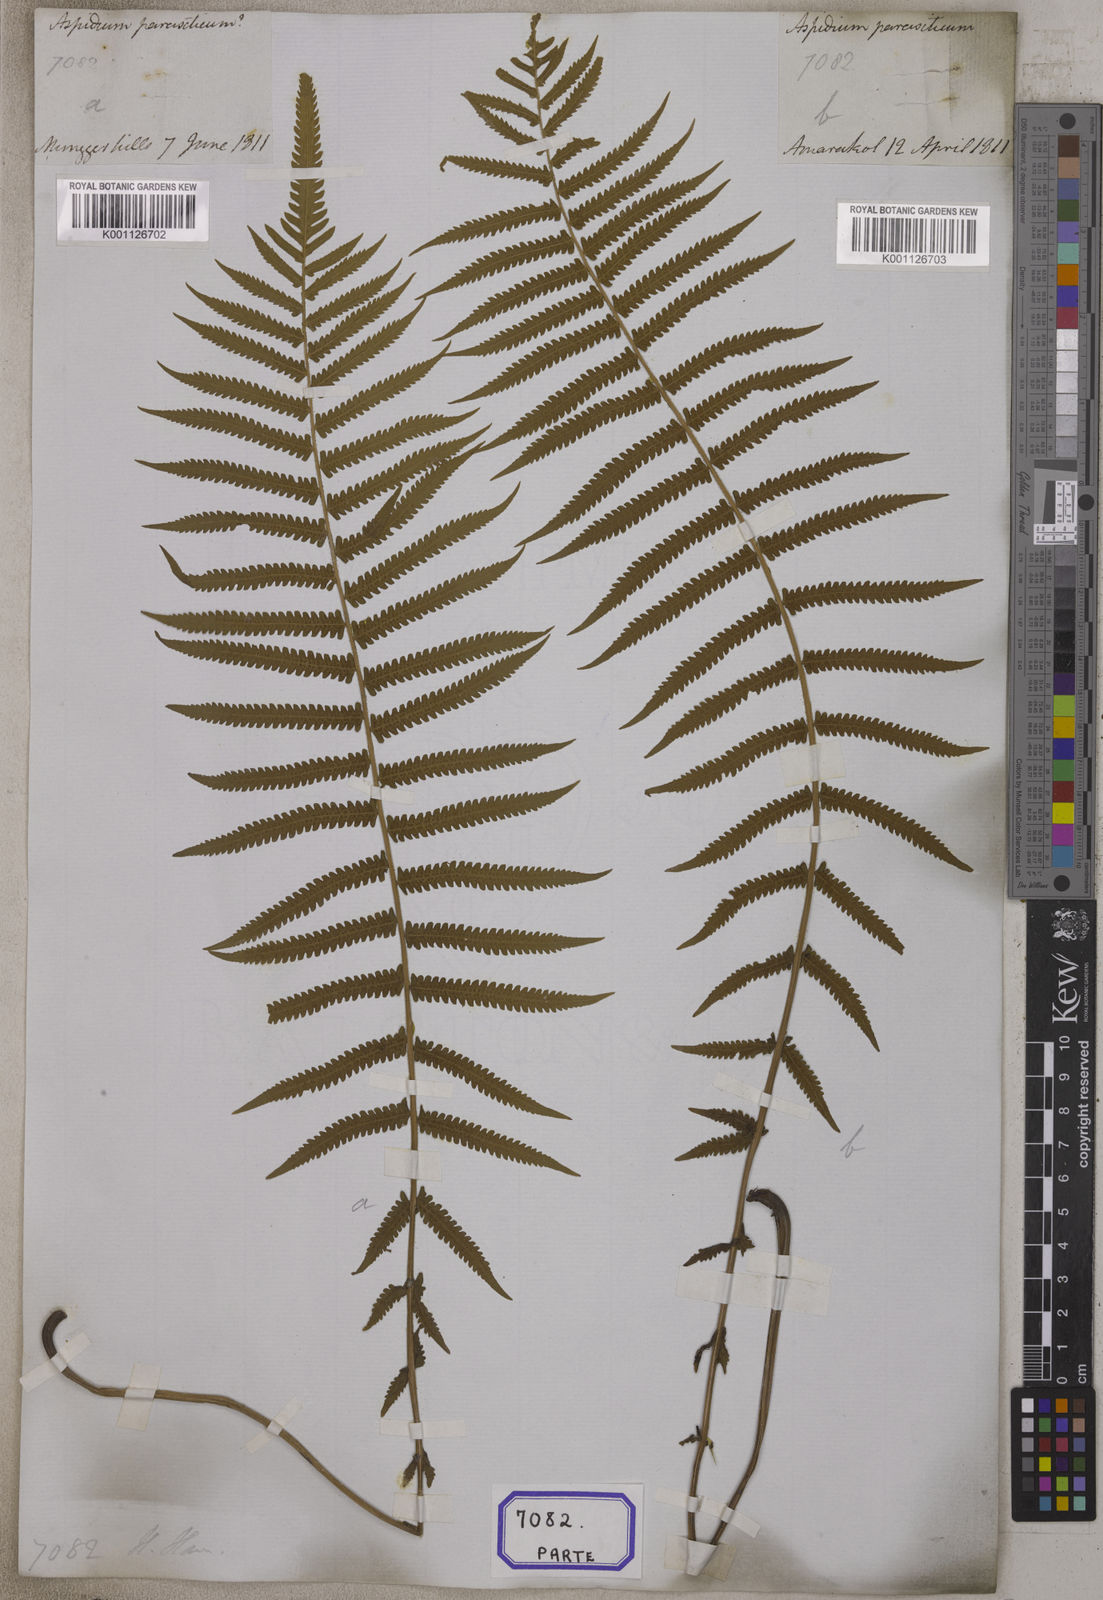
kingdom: Plantae
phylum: Tracheophyta
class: Polypodiopsida
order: Polypodiales
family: Thelypteridaceae
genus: Christella
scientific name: Christella parasitica
